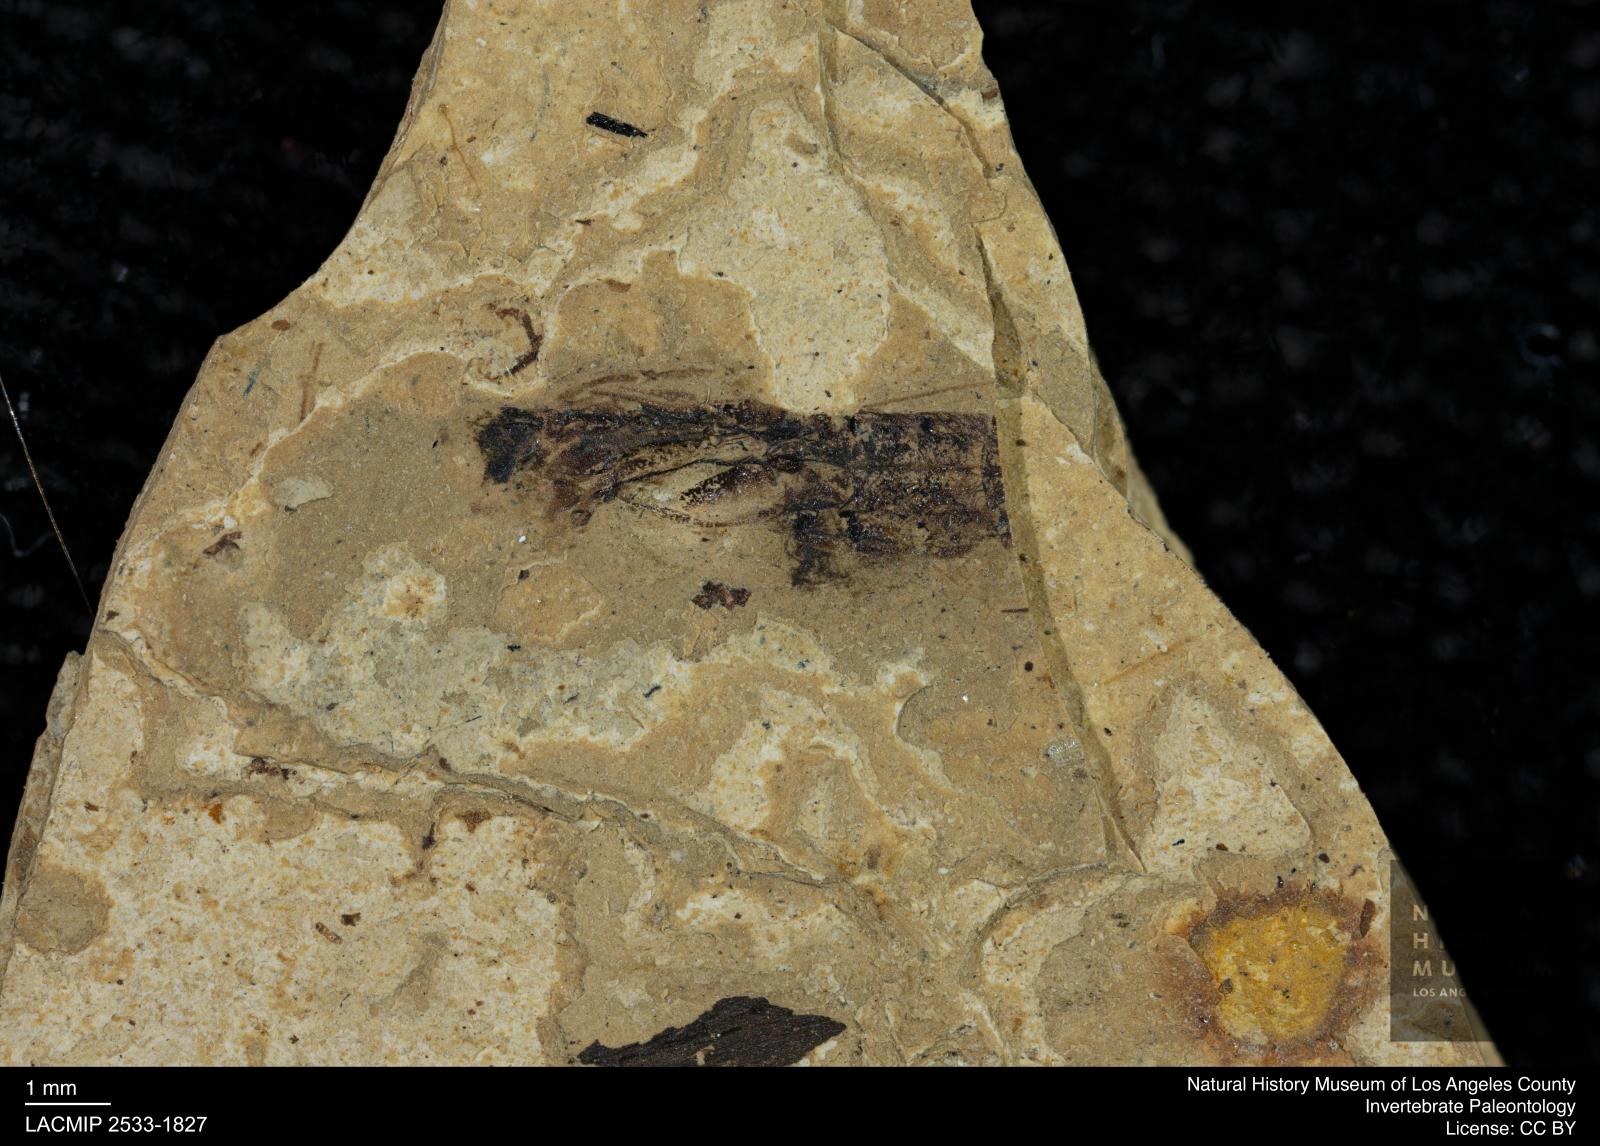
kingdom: Animalia
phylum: Arthropoda
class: Insecta
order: Hemiptera
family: Notonectidae
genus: Notonecta
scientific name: Notonecta
